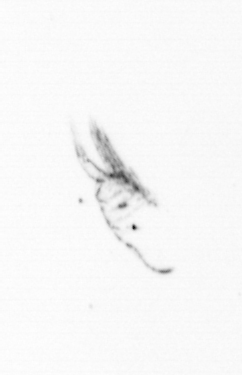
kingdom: Animalia
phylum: Arthropoda
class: Copepoda
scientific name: Copepoda
